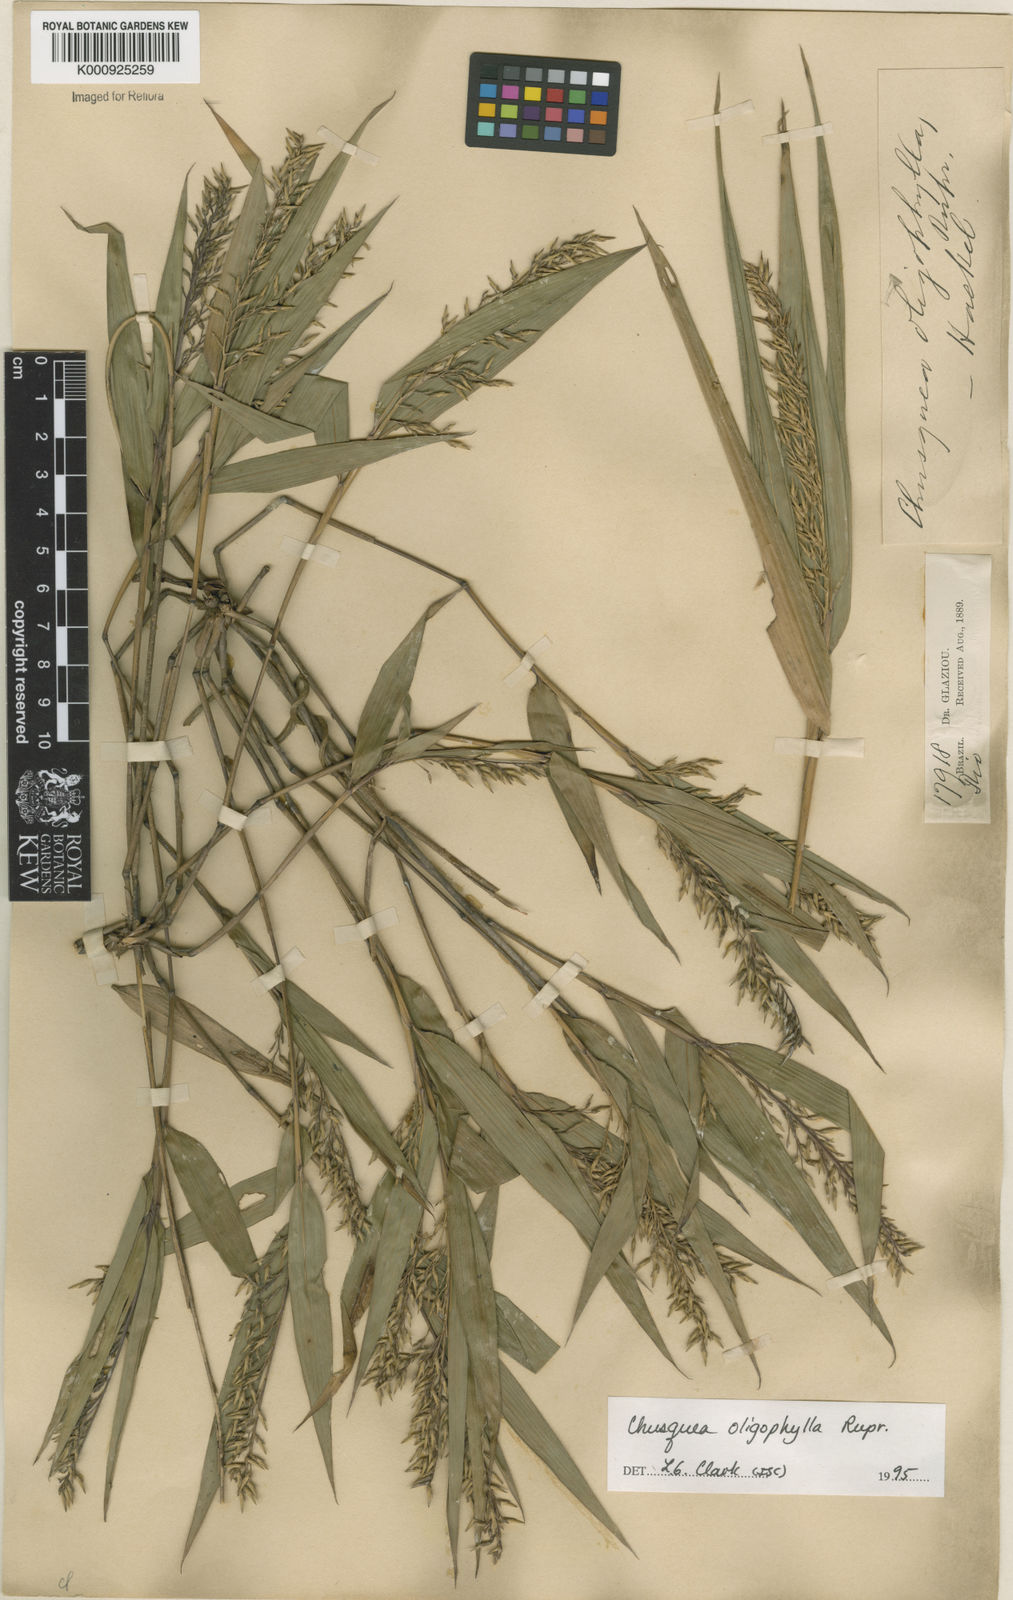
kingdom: Plantae
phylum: Tracheophyta
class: Liliopsida
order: Poales
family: Poaceae
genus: Chusquea
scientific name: Chusquea oligophylla
